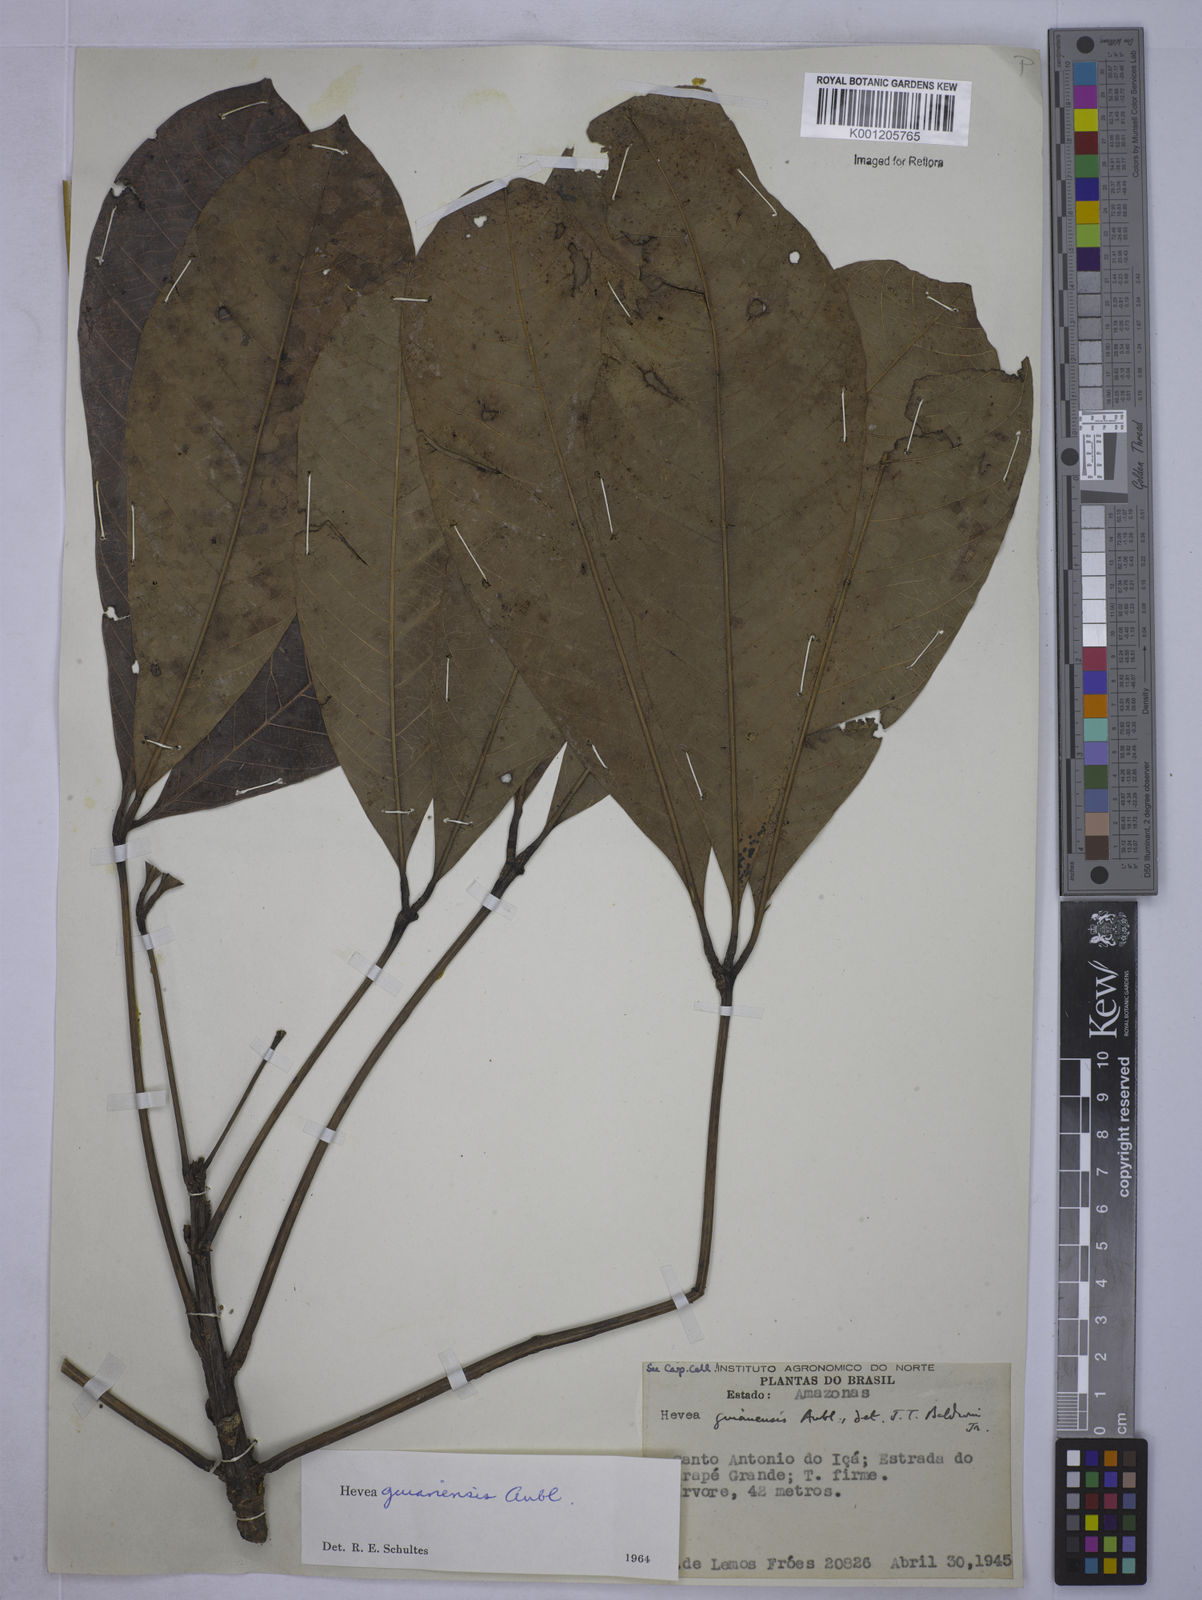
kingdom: Plantae
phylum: Tracheophyta
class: Magnoliopsida
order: Malpighiales
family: Euphorbiaceae
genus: Hevea
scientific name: Hevea guianensis
